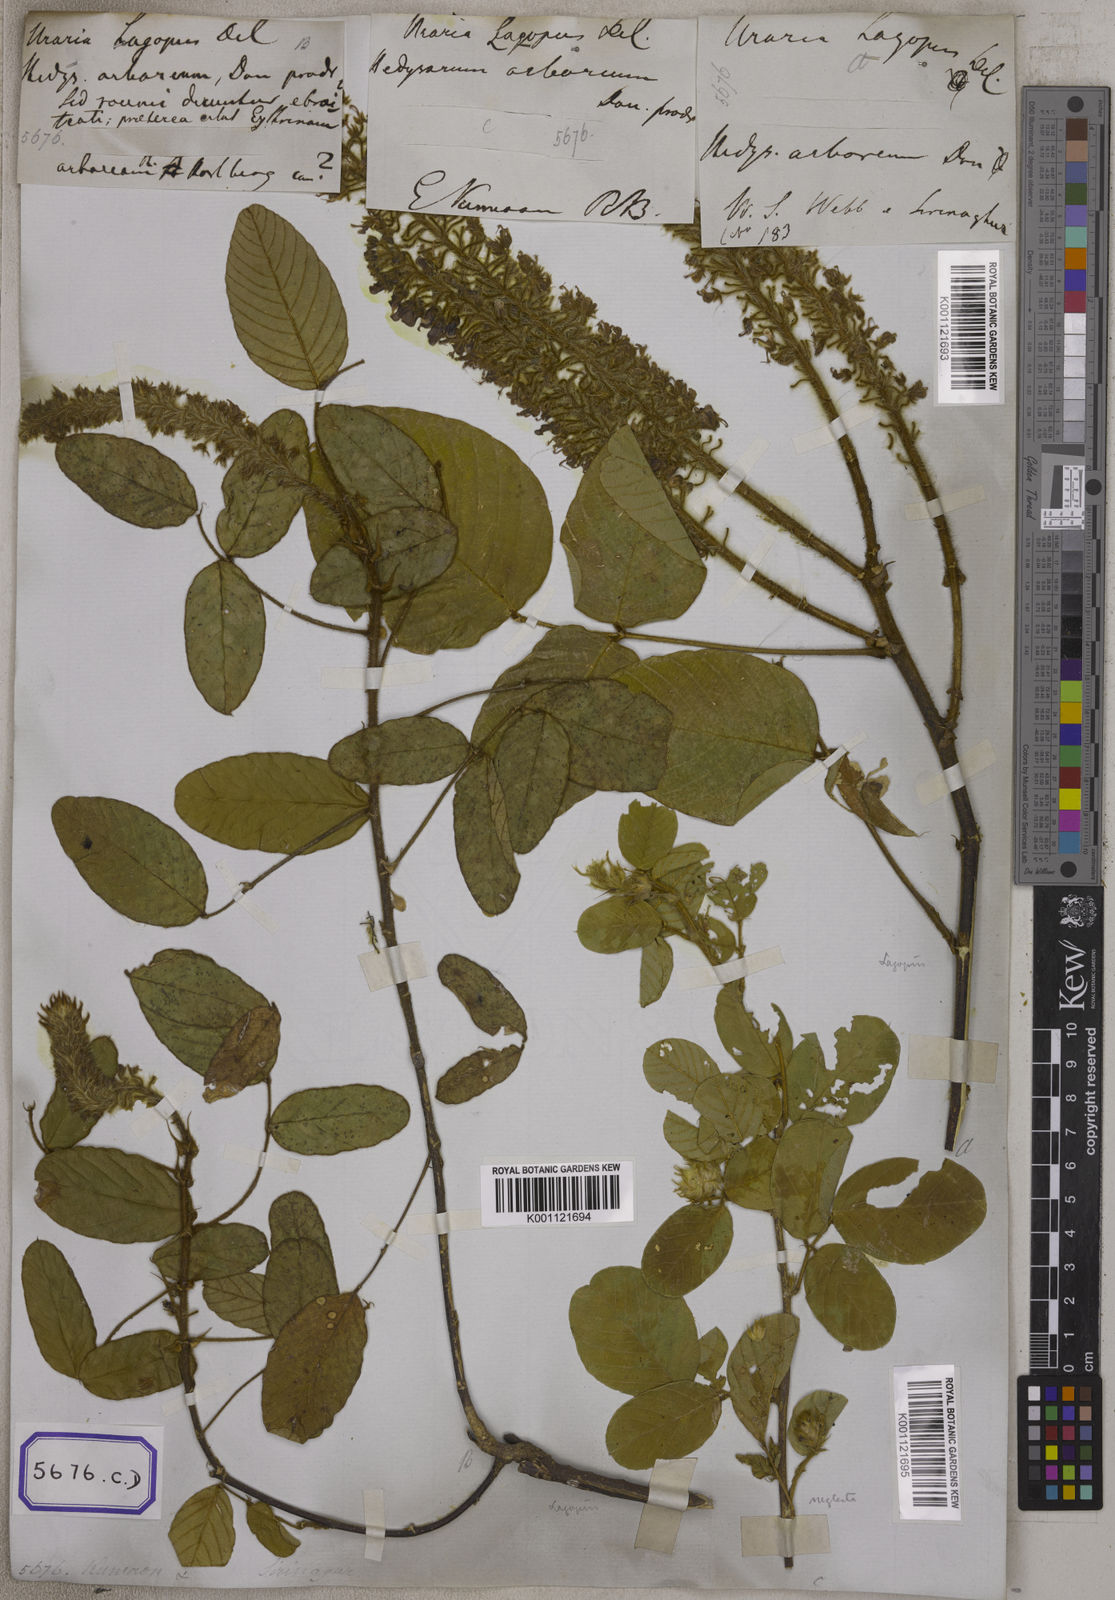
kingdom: Plantae
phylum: Tracheophyta
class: Magnoliopsida
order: Fabales
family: Fabaceae
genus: Uraria
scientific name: Uraria lagopodioides
